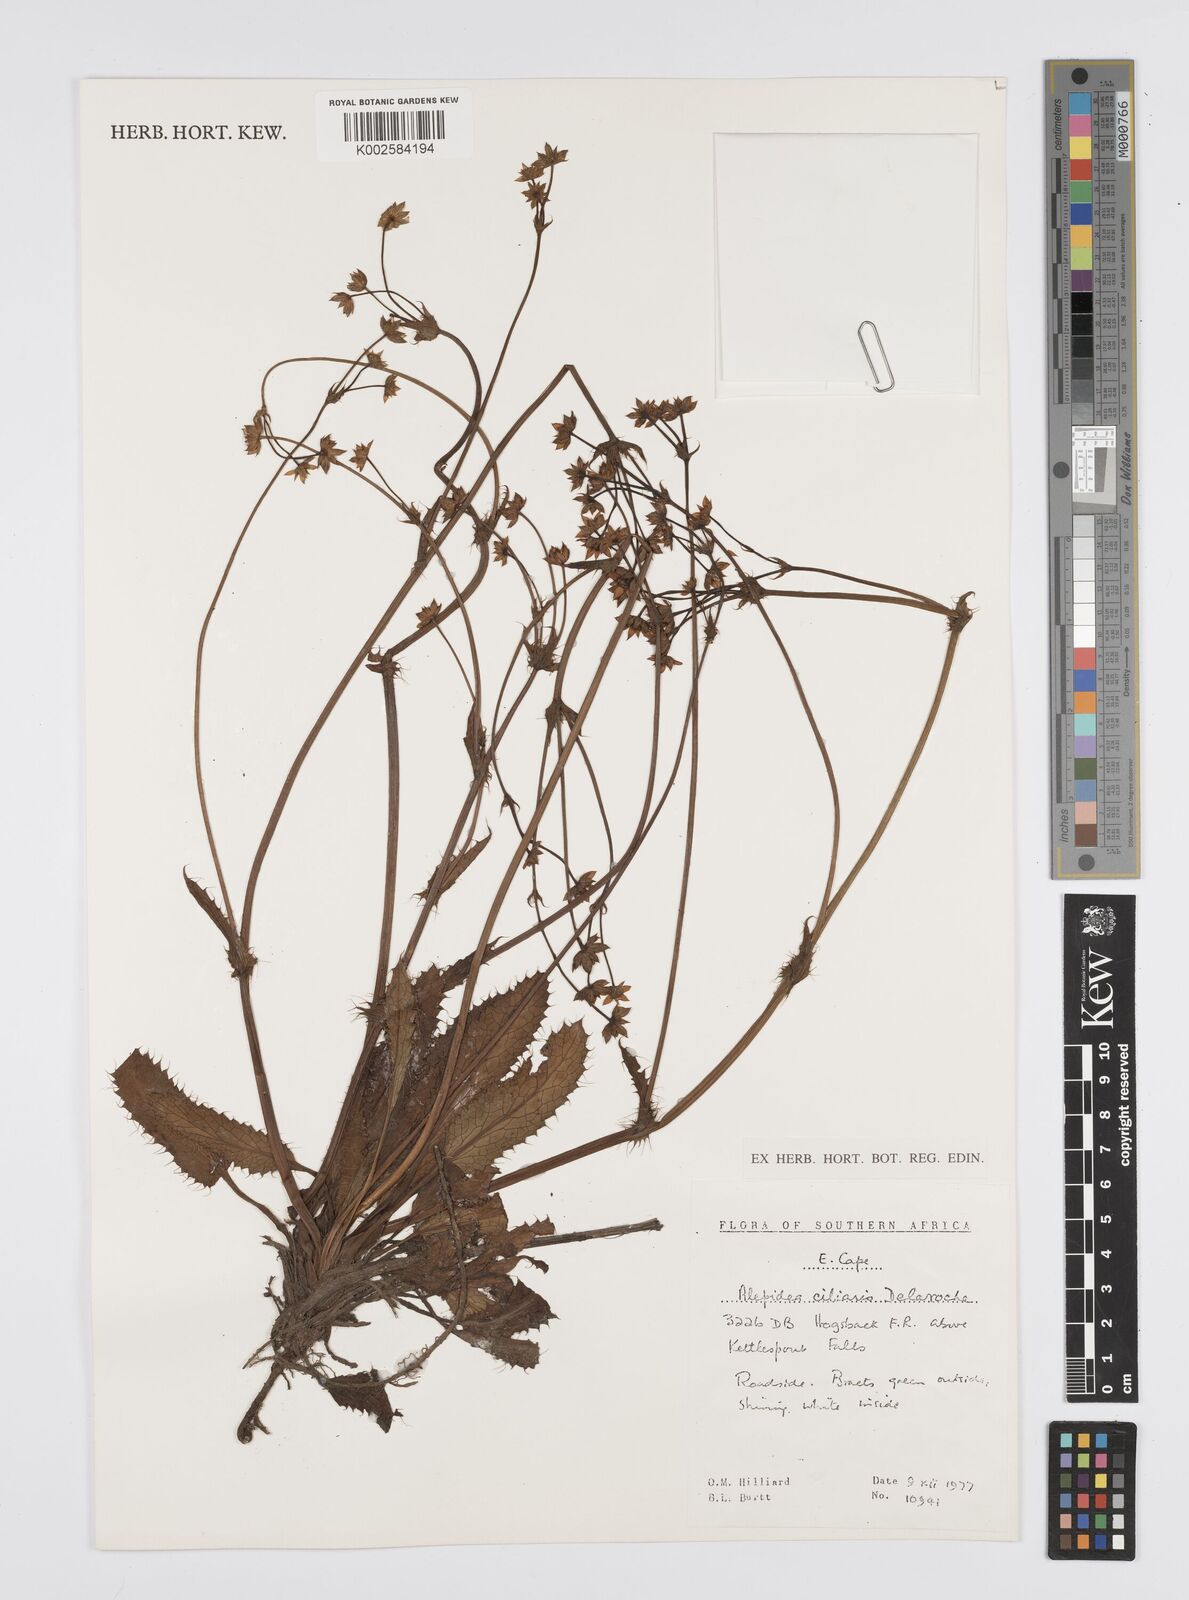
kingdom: Plantae
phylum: Tracheophyta
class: Magnoliopsida
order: Apiales
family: Apiaceae
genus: Alepidea
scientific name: Alepidea capensis
